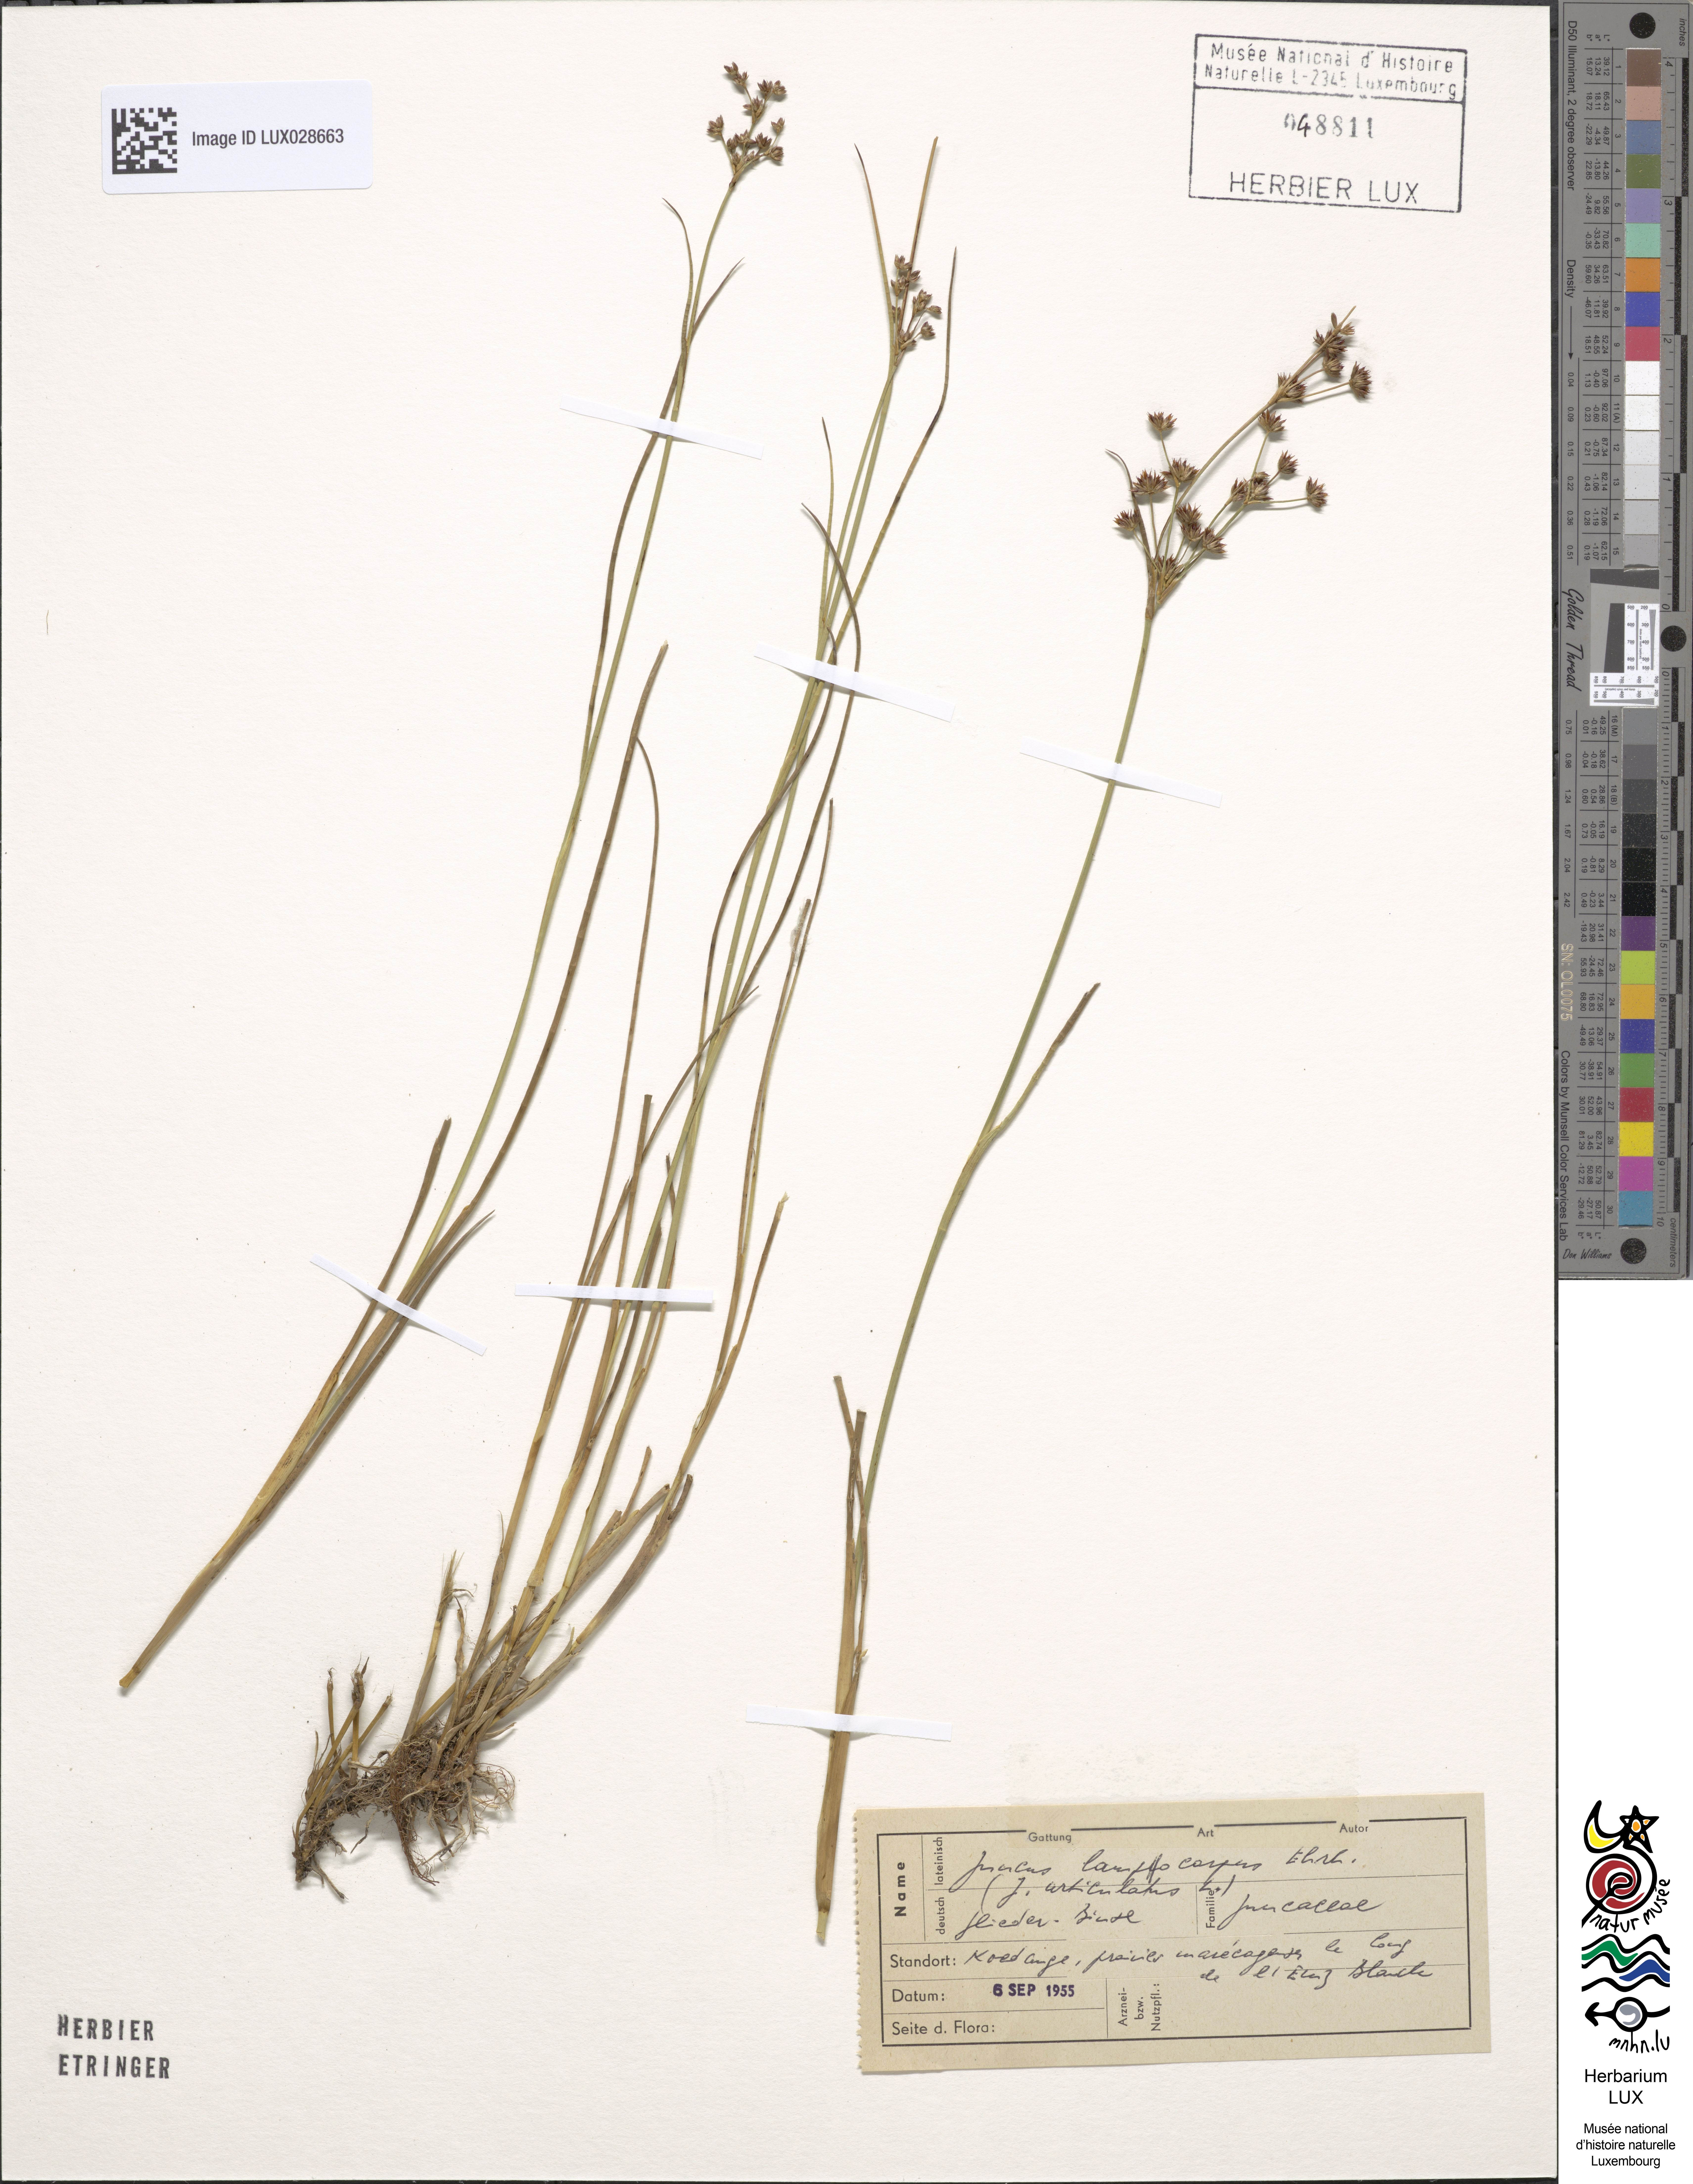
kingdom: Plantae
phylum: Tracheophyta
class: Liliopsida
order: Poales
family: Juncaceae
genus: Juncus
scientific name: Juncus articulatus
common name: Jointed rush
